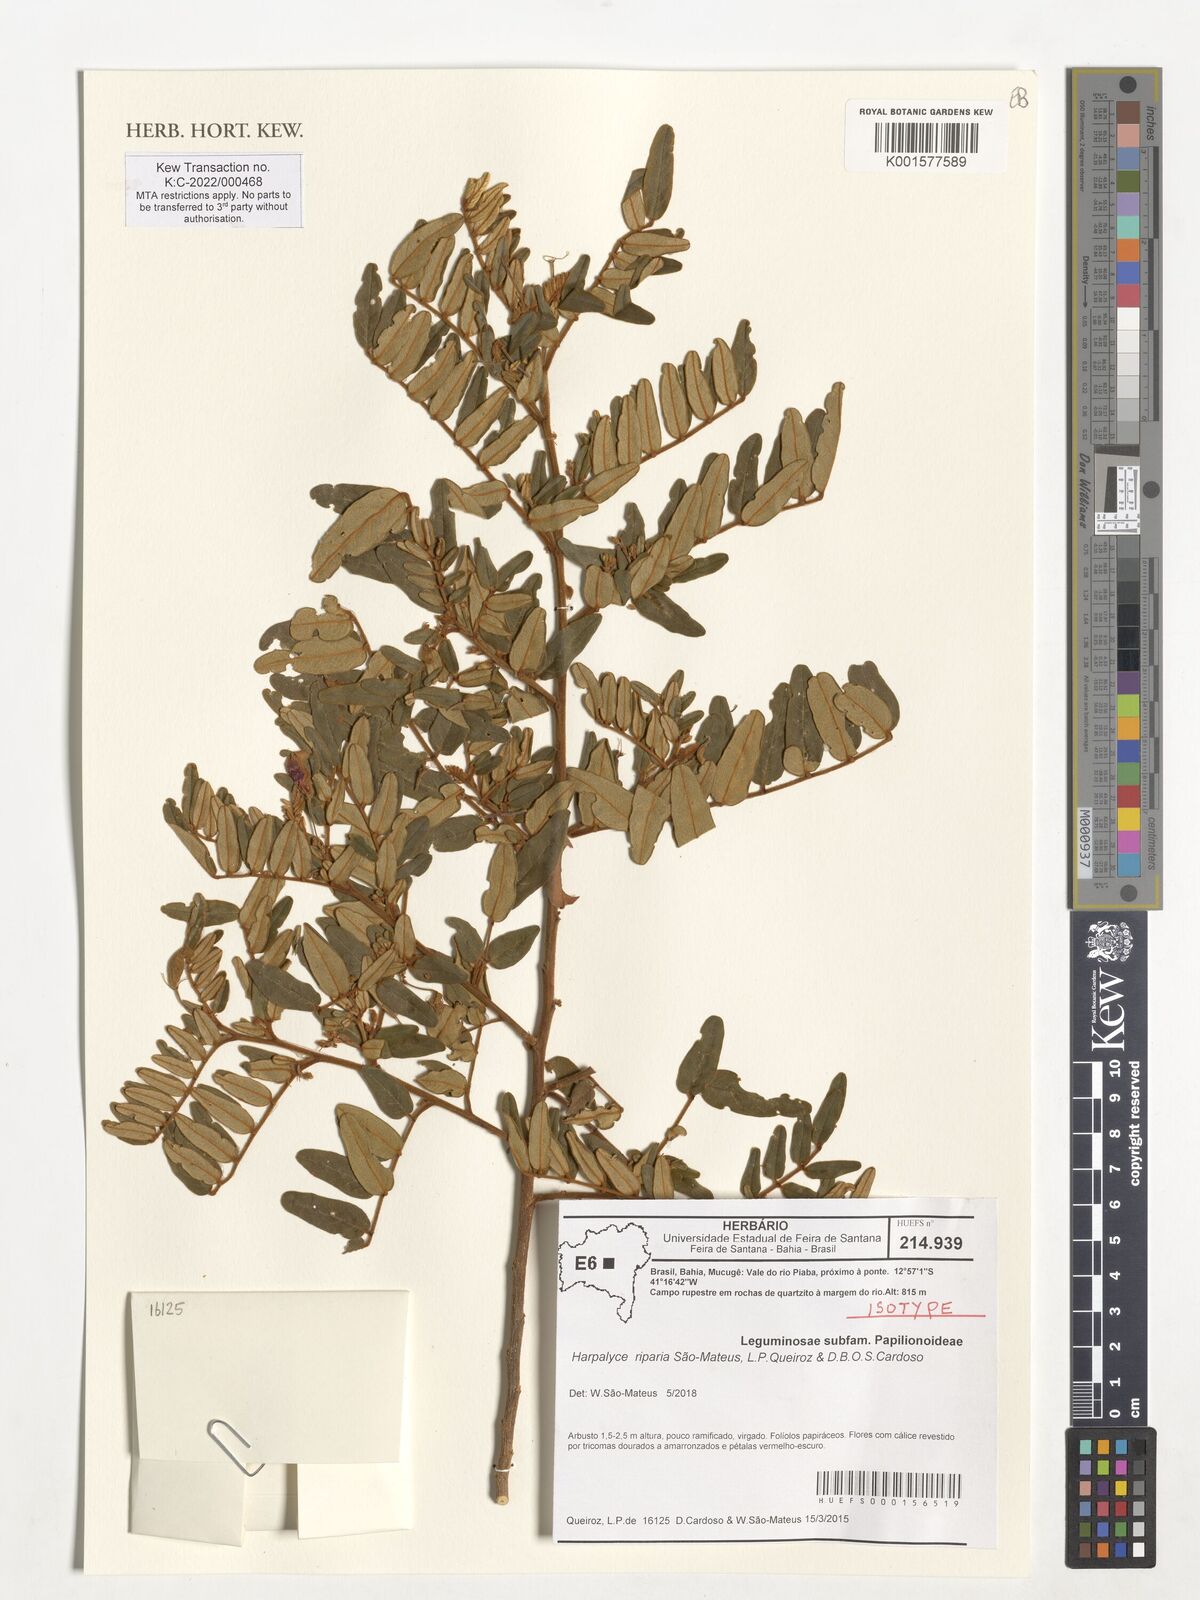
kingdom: Plantae
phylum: Tracheophyta
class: Magnoliopsida
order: Fabales
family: Fabaceae
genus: Harpalyce
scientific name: Harpalyce riparia
